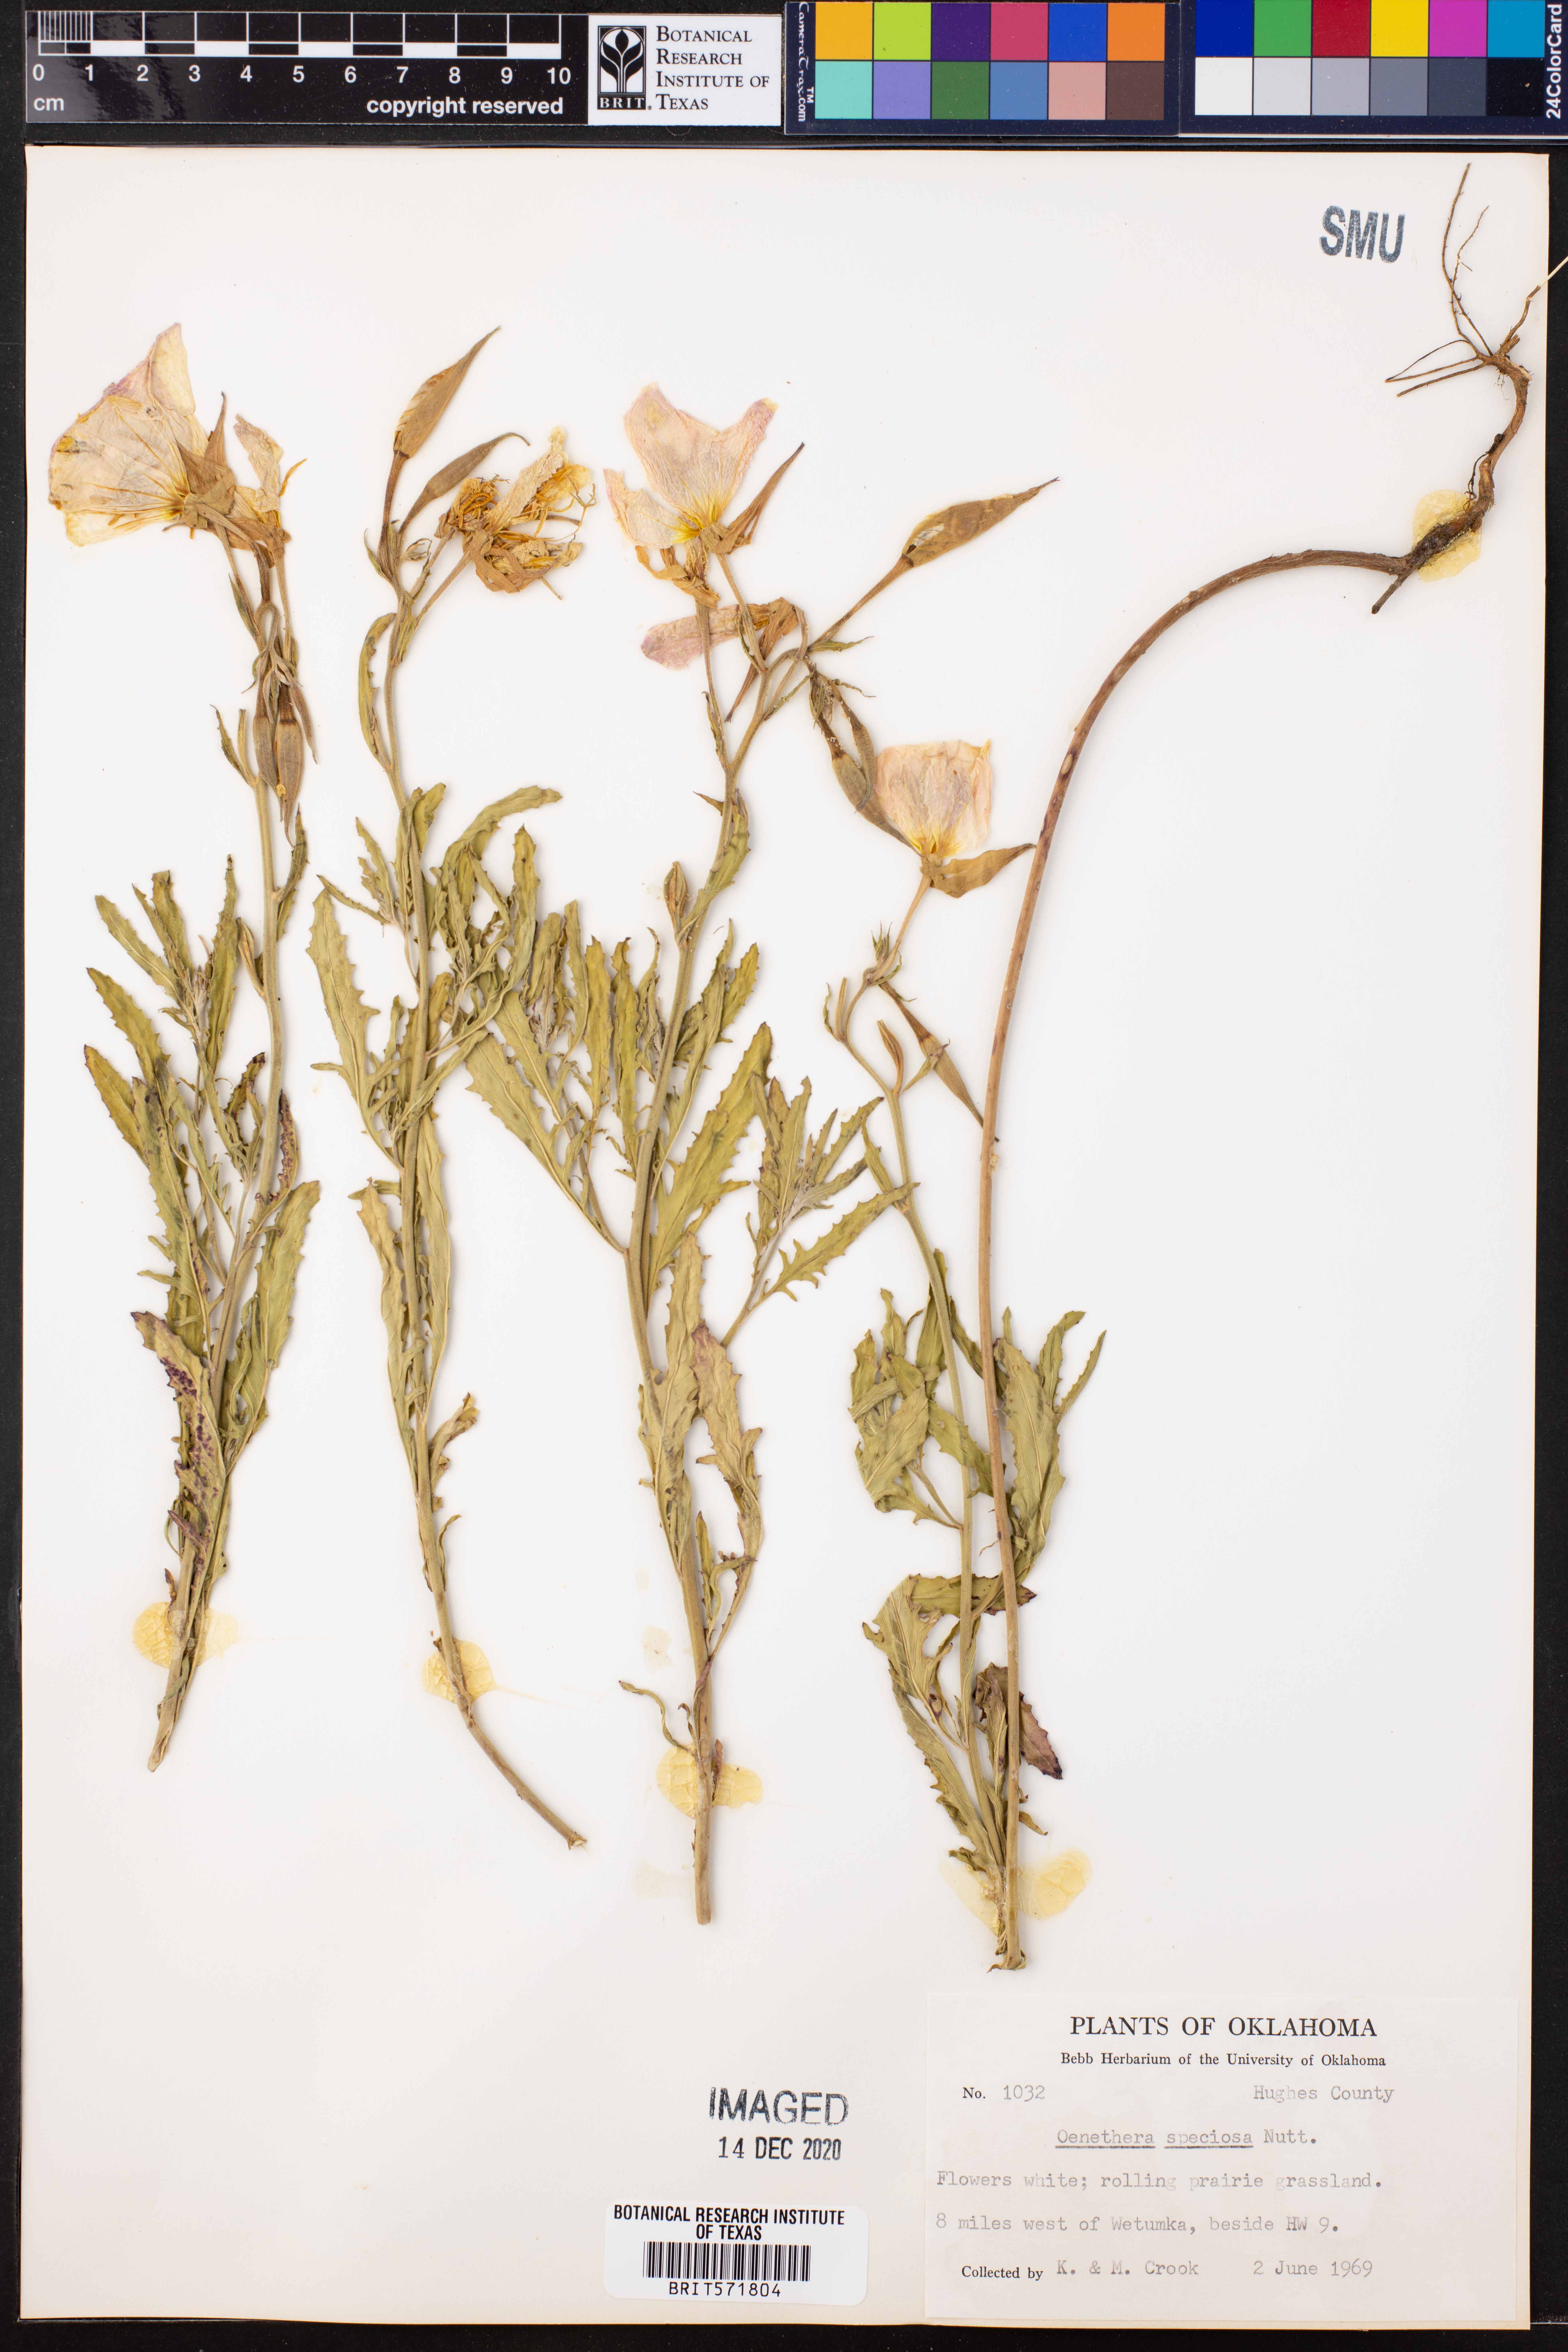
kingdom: Plantae
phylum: Tracheophyta
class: Magnoliopsida
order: Myrtales
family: Onagraceae
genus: Oenothera
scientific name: Oenothera speciosa
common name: White evening-primrose
